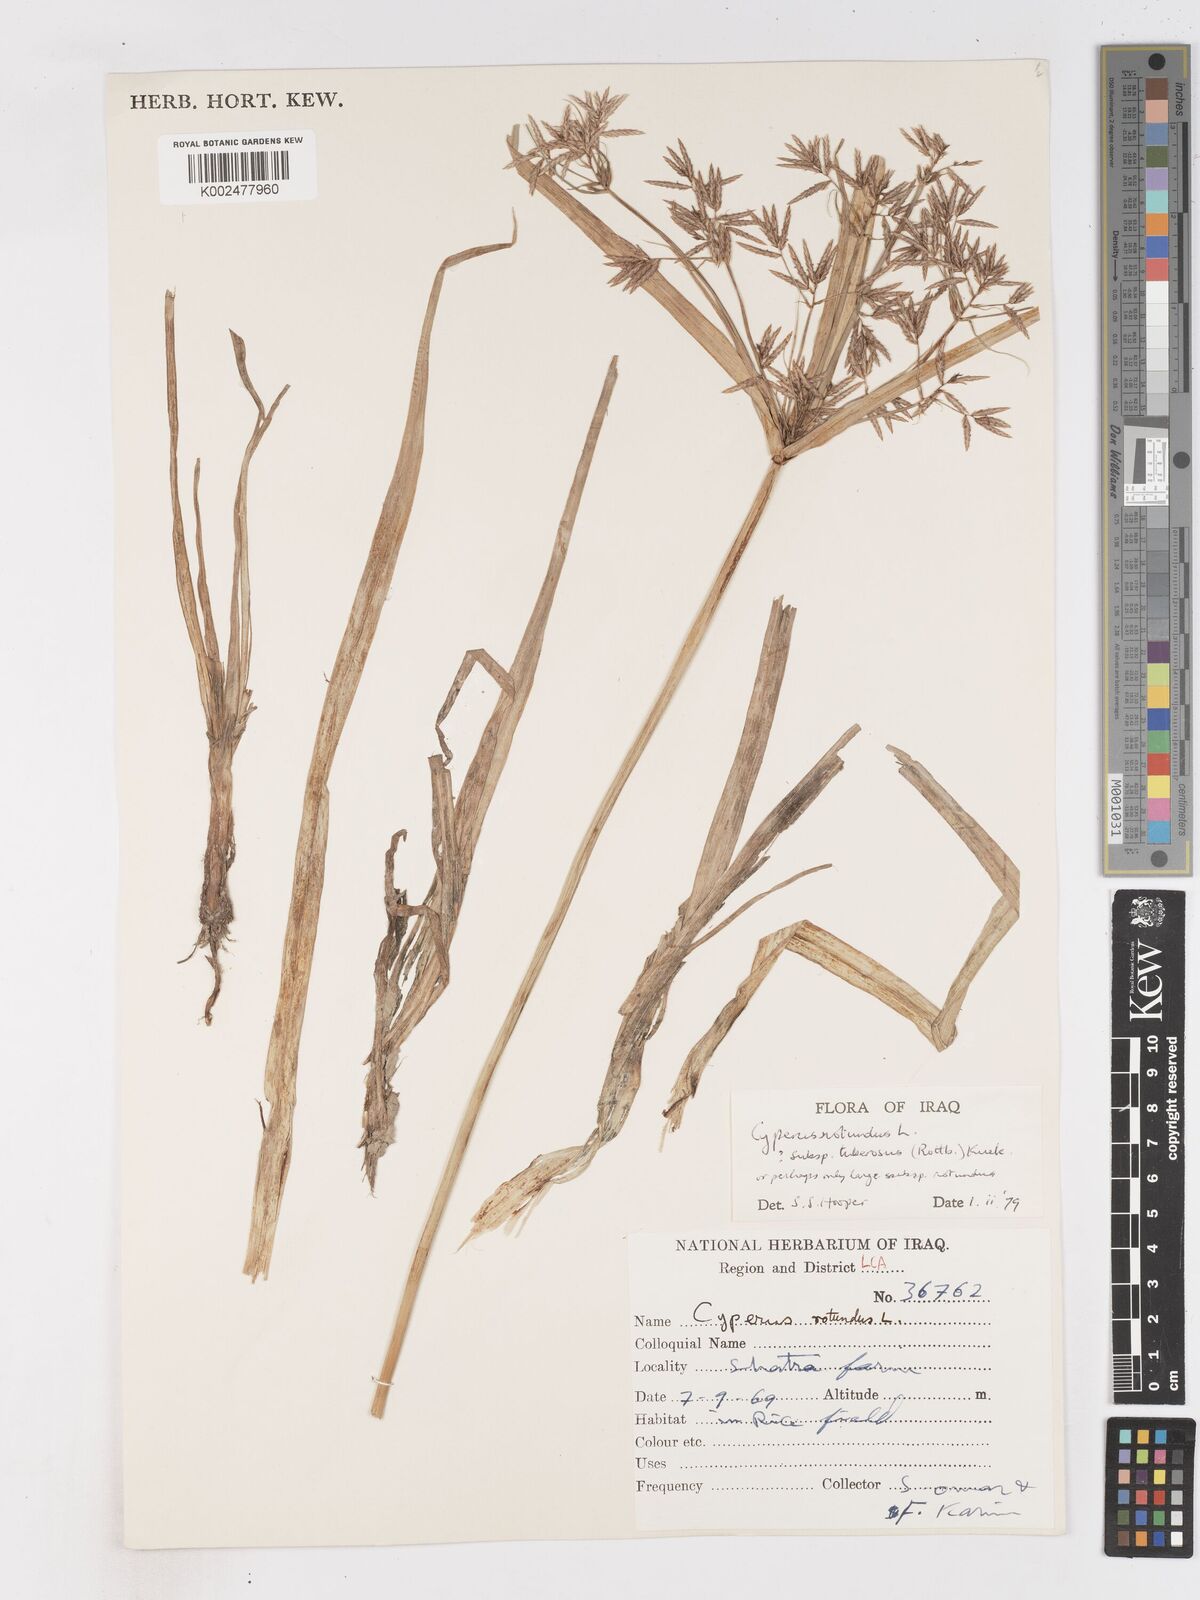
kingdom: Plantae
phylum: Tracheophyta
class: Liliopsida
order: Poales
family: Cyperaceae
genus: Cyperus
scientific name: Cyperus rotundus
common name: Nutgrass
